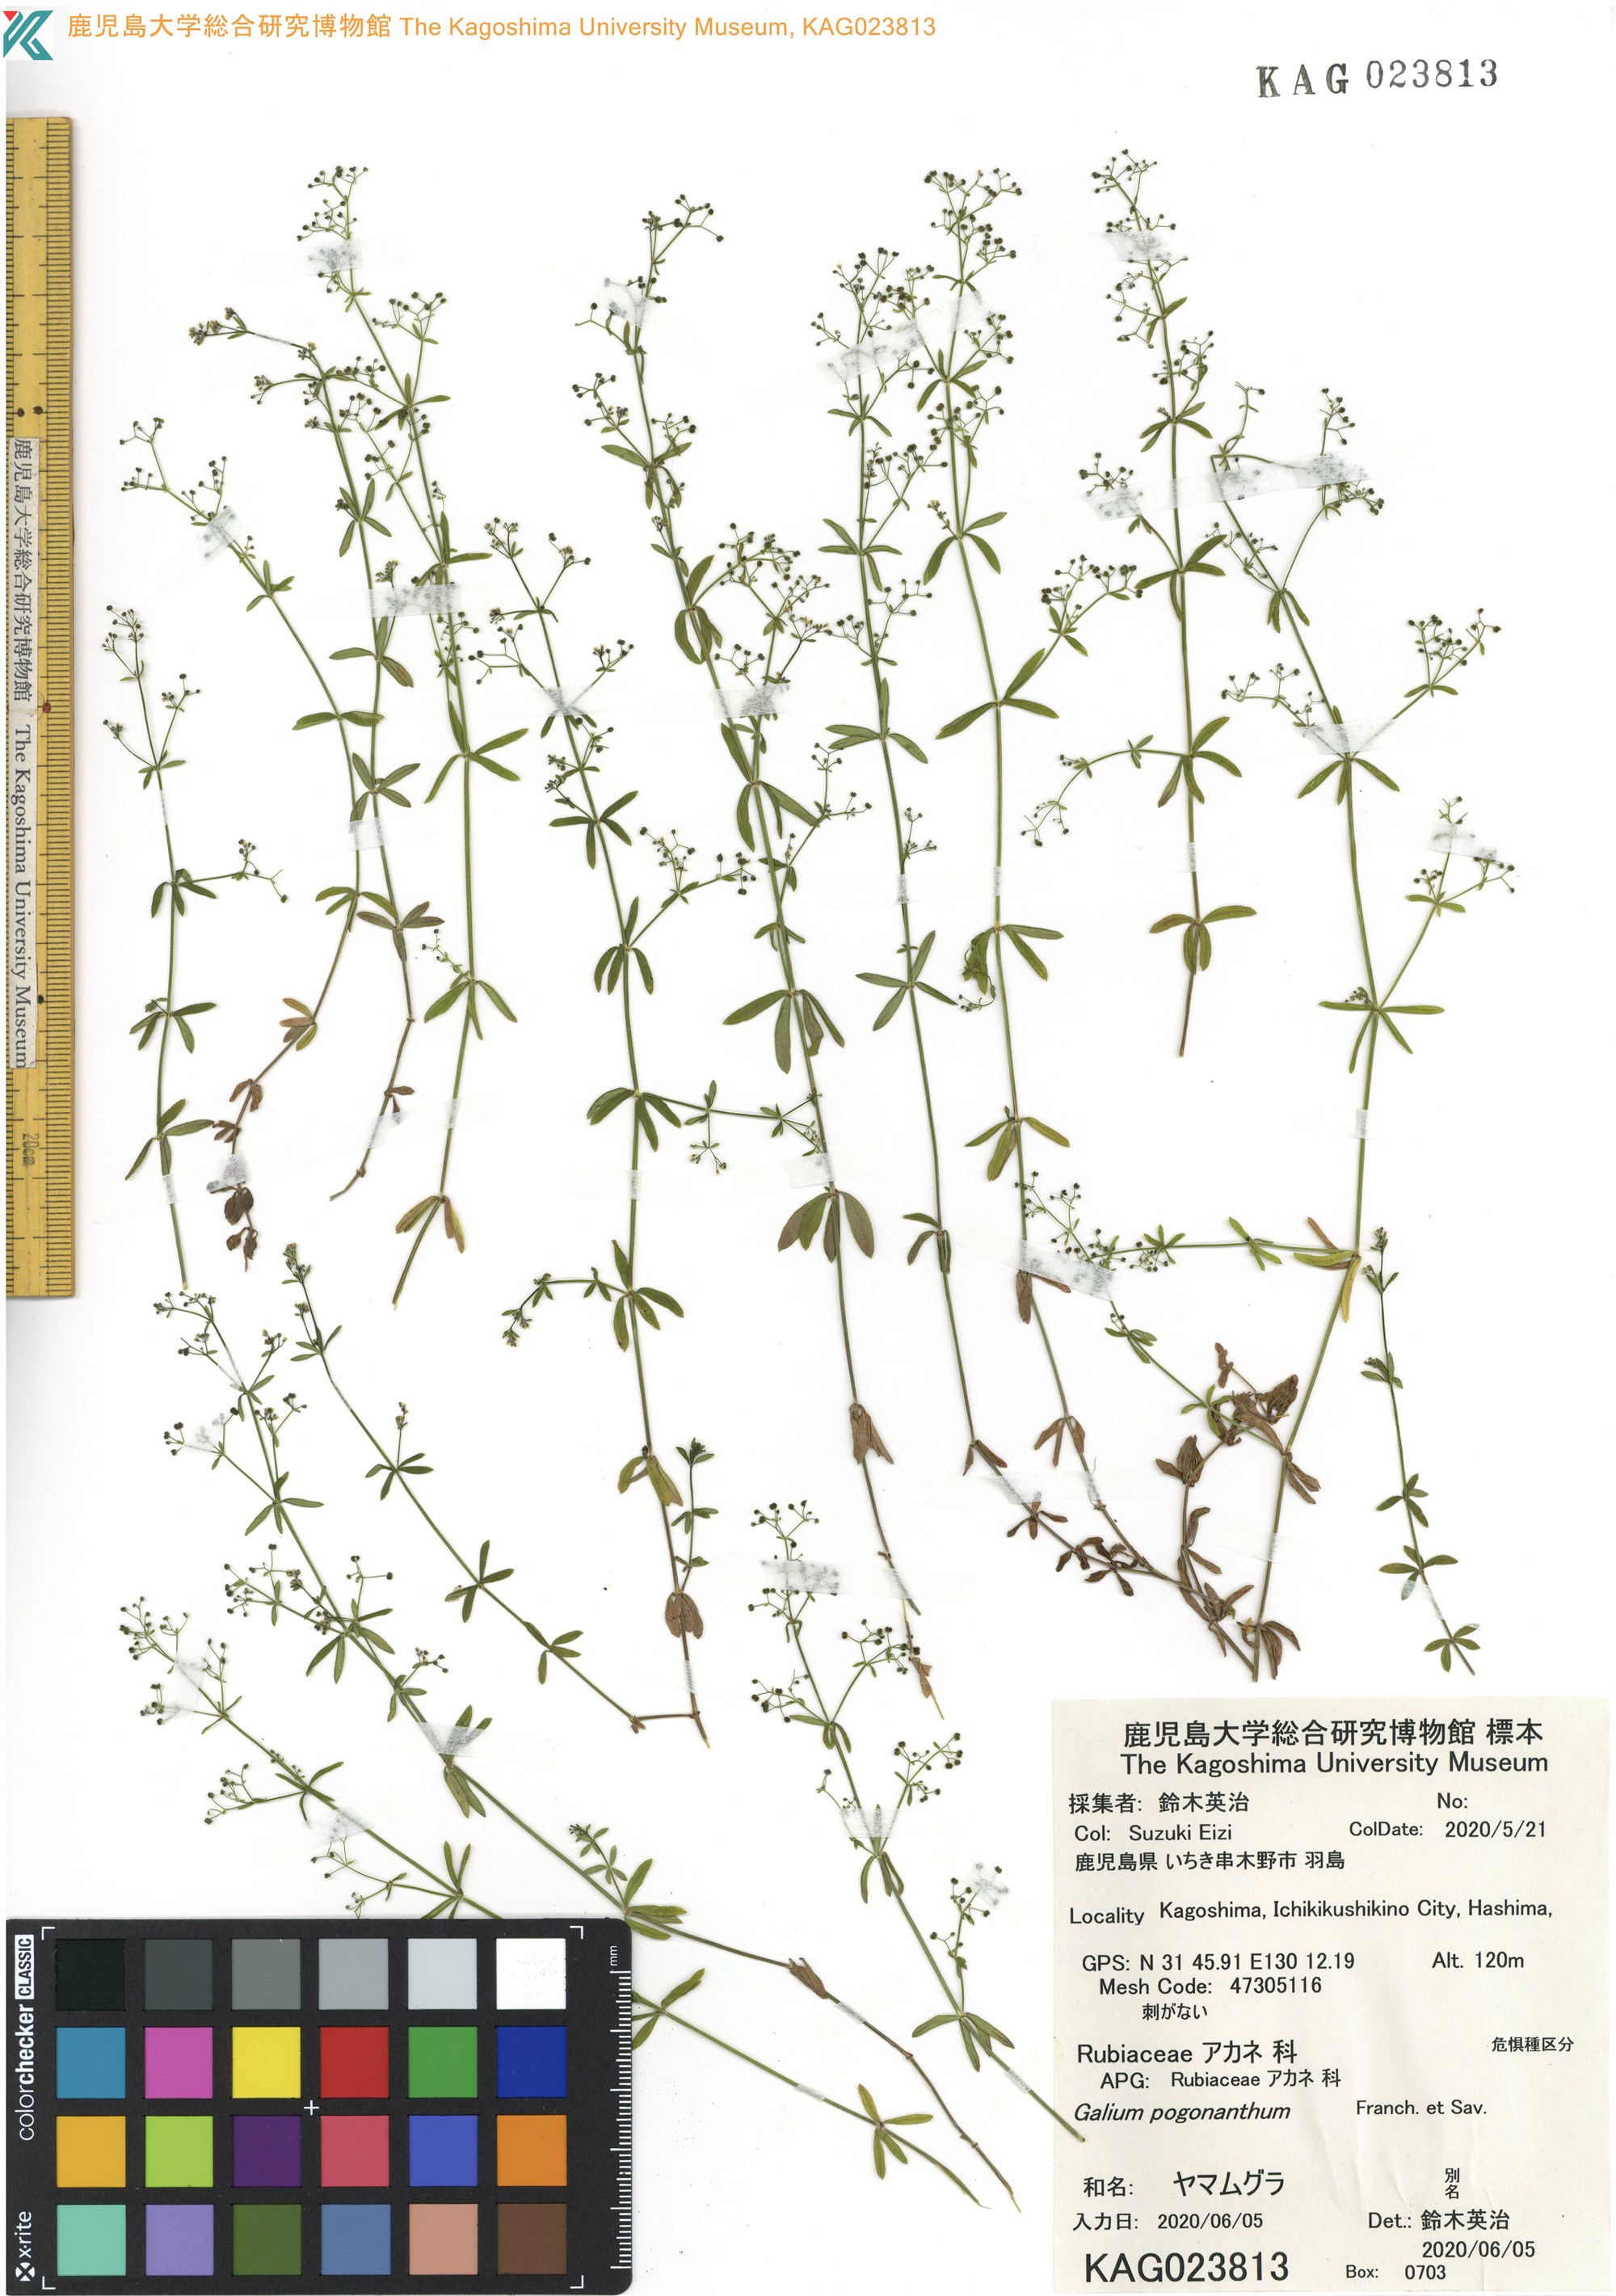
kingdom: Plantae
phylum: Tracheophyta
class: Magnoliopsida
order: Gentianales
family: Rubiaceae
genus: Galium
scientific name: Galium bungei
